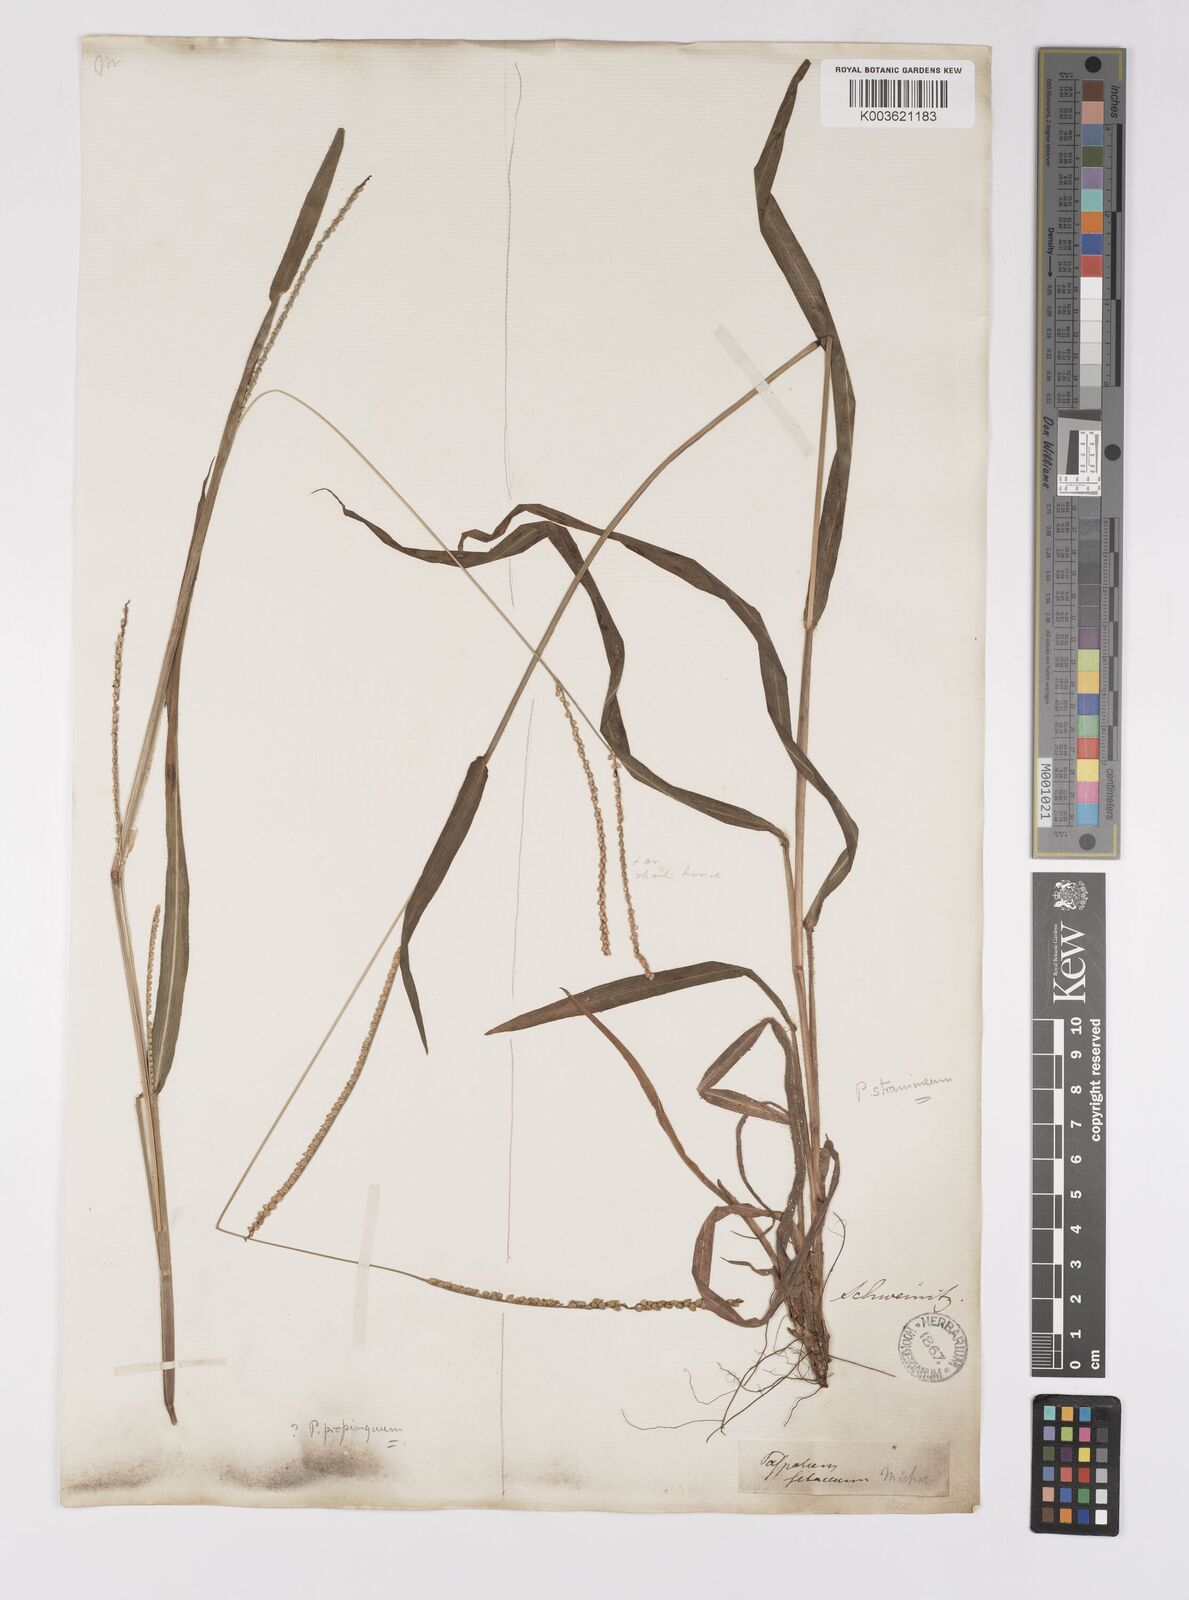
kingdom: Plantae
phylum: Tracheophyta
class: Liliopsida
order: Poales
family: Poaceae
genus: Paspalum
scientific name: Paspalum setaceum
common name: Slender paspalum
